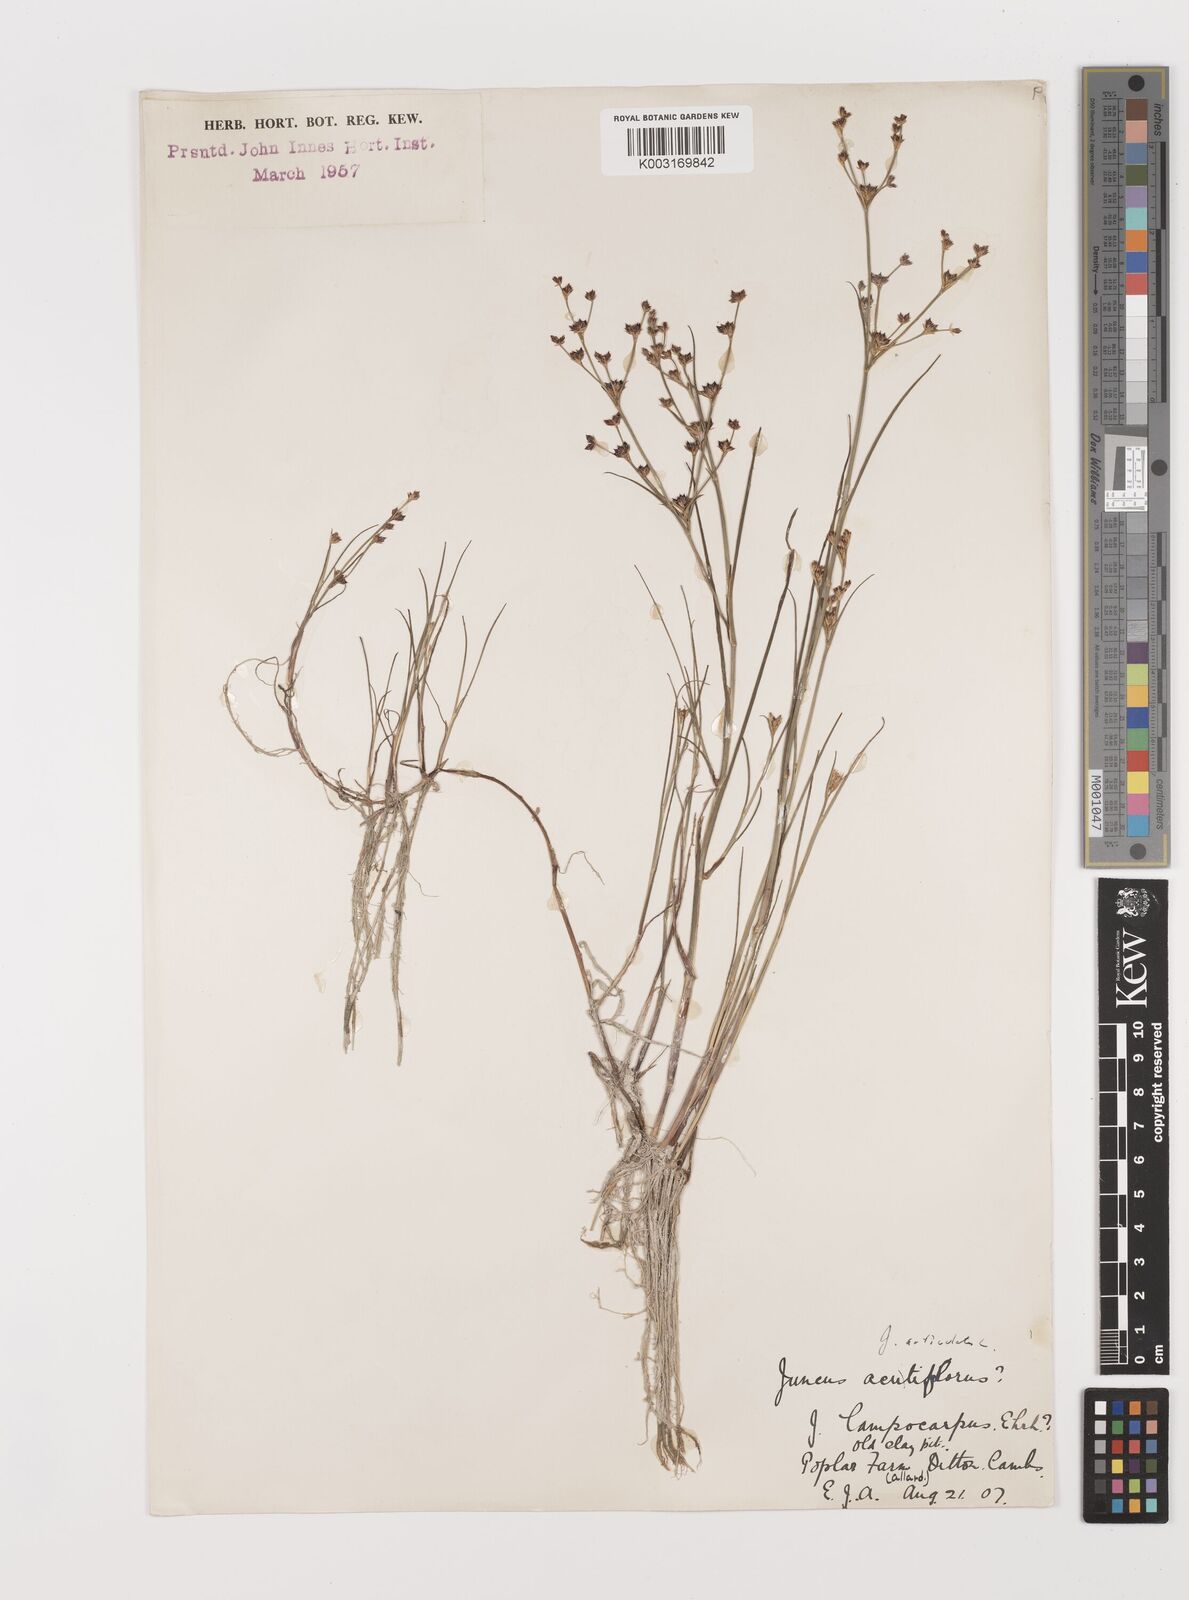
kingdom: Plantae
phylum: Tracheophyta
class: Liliopsida
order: Poales
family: Juncaceae
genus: Juncus
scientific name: Juncus articulatus
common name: Jointed rush
